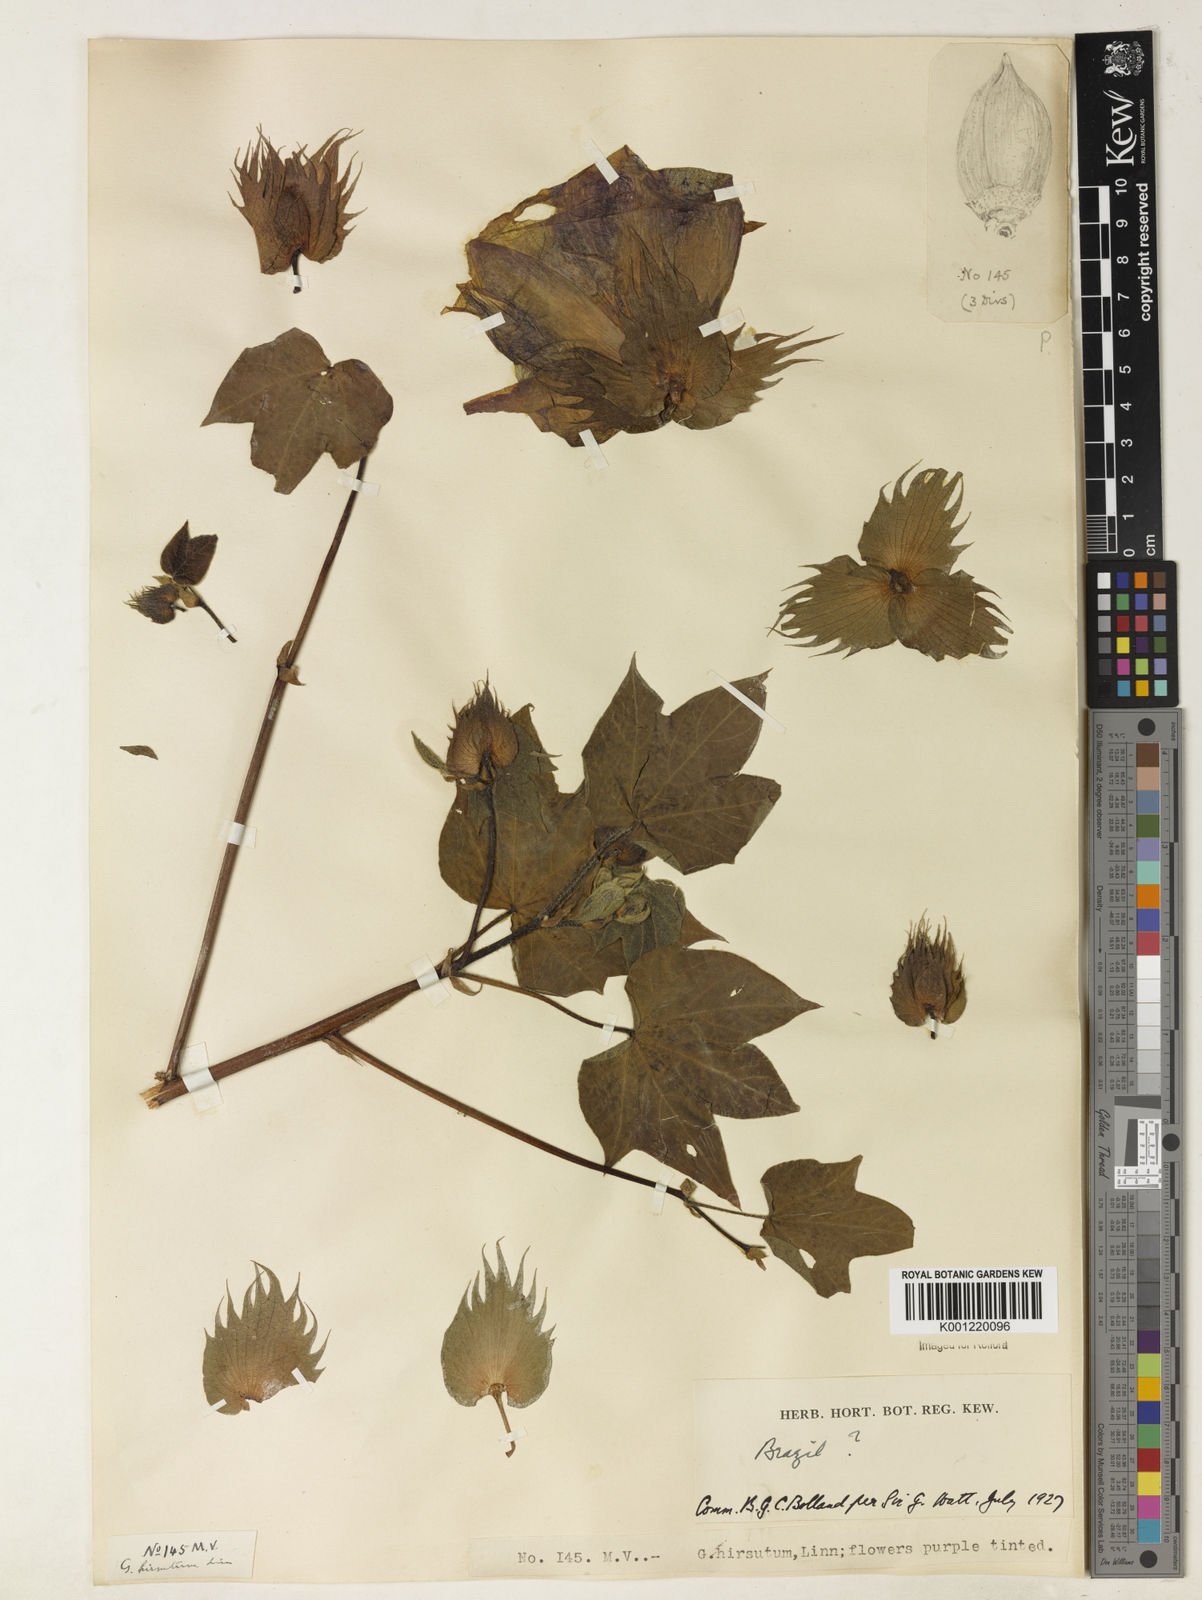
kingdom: Plantae
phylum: Tracheophyta
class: Magnoliopsida
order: Malvales
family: Malvaceae
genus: Gossypium
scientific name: Gossypium hirsutum
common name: Cotton
